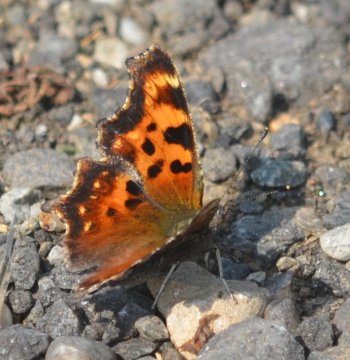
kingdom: Animalia
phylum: Arthropoda
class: Insecta
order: Lepidoptera
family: Nymphalidae
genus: Polygonia
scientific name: Polygonia faunus
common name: Green Comma
